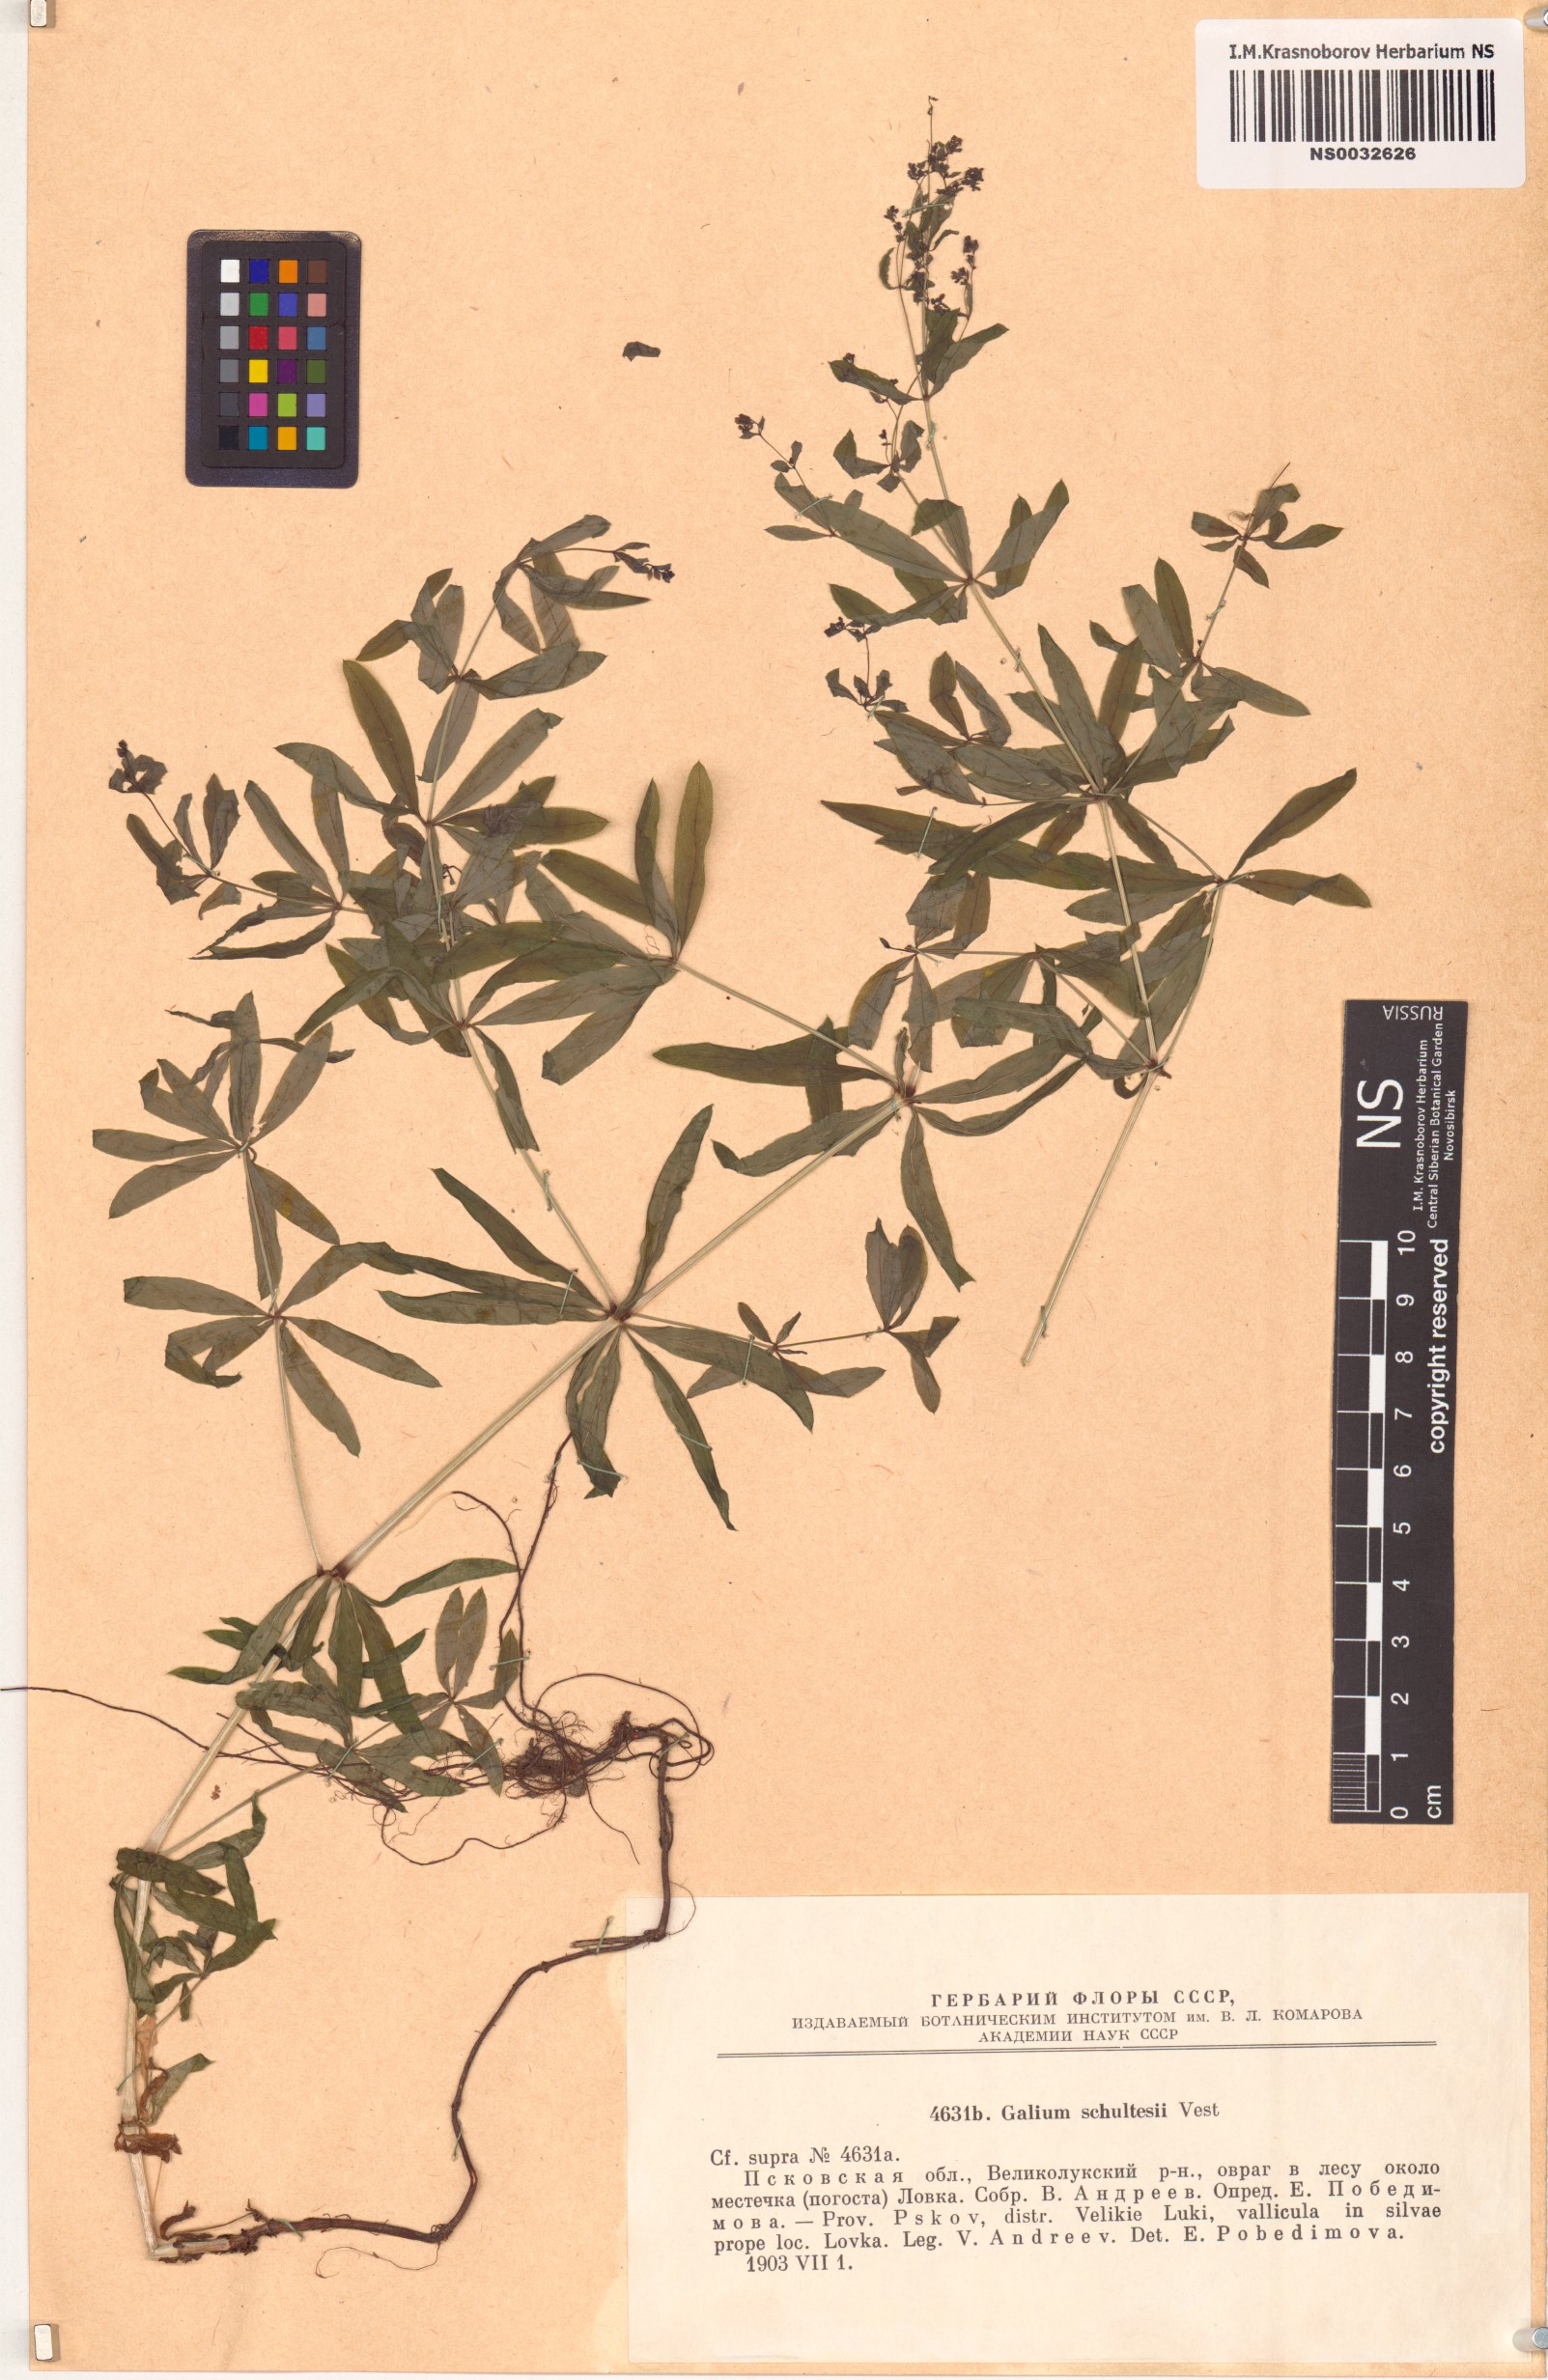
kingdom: Plantae
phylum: Tracheophyta
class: Magnoliopsida
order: Gentianales
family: Rubiaceae
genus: Galium
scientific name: Galium intermedium
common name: Bedstraw
